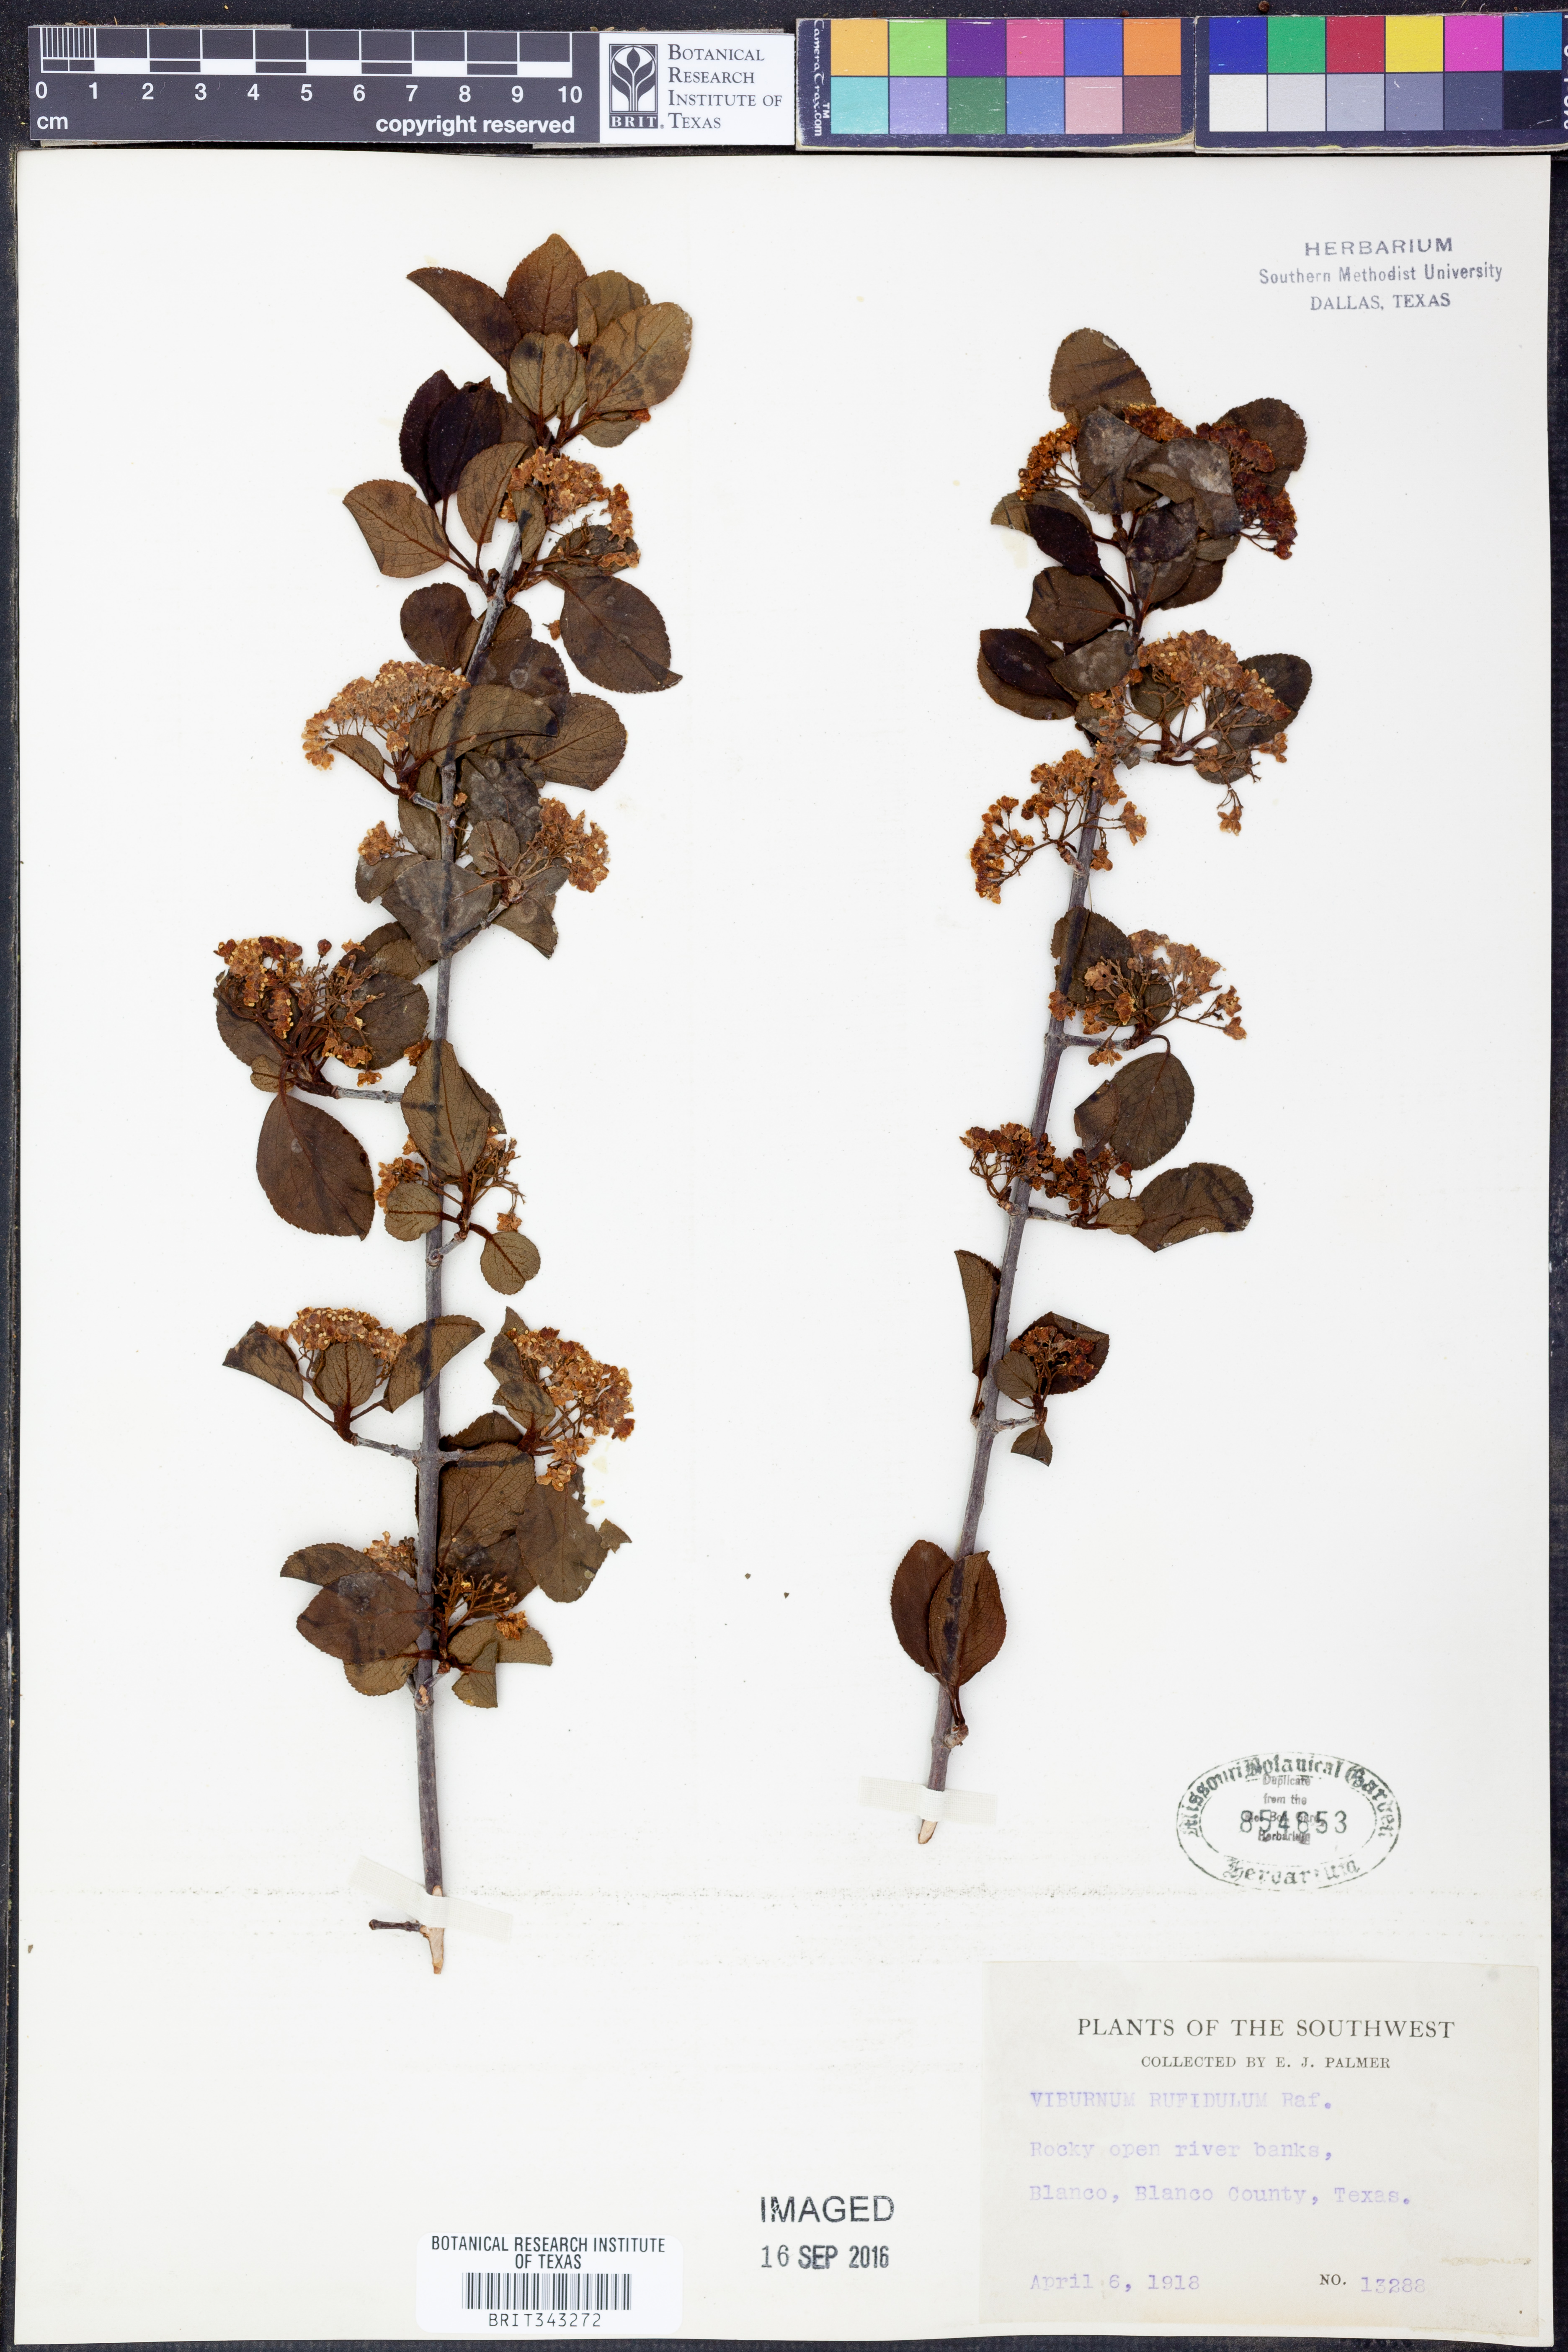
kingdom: Plantae
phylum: Tracheophyta
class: Magnoliopsida
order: Dipsacales
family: Viburnaceae
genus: Viburnum
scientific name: Viburnum rufidulum
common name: Blue haw
